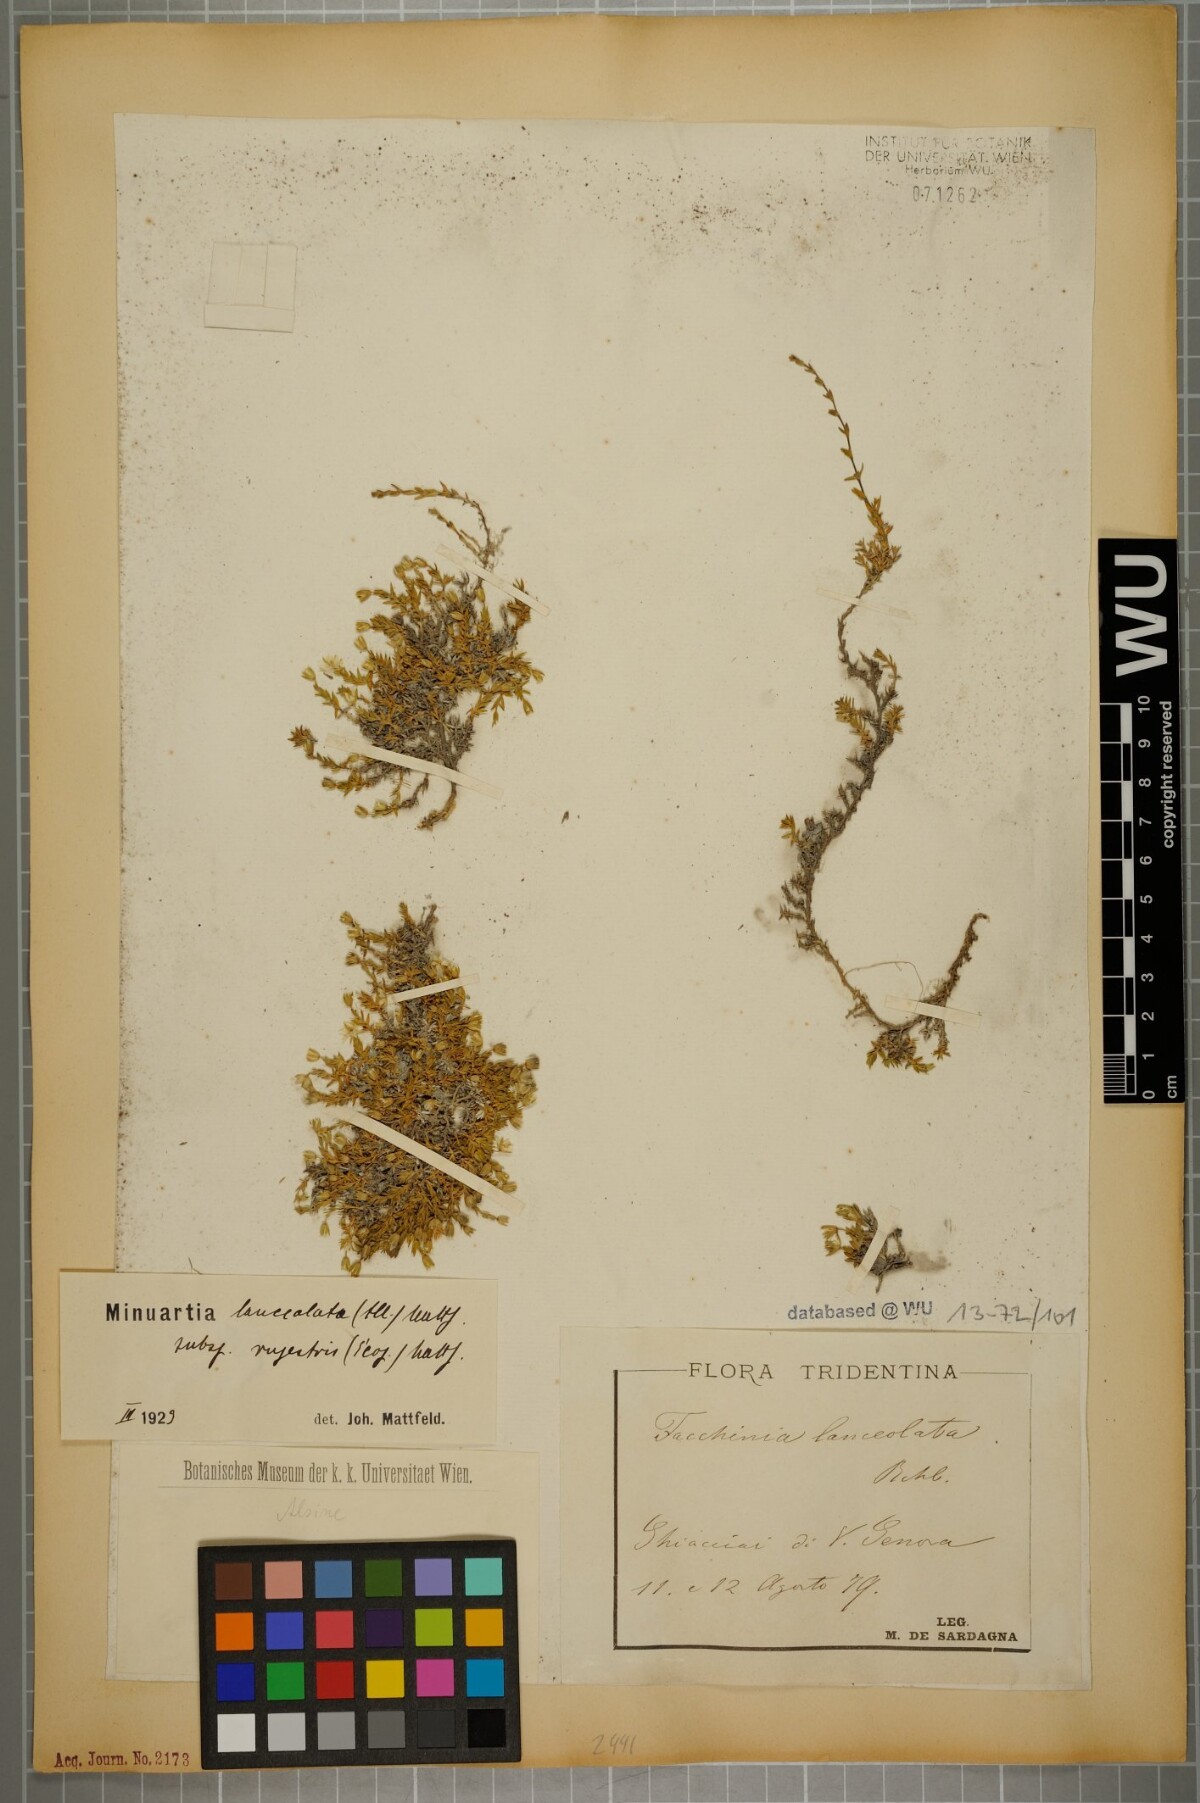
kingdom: Plantae
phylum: Tracheophyta
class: Magnoliopsida
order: Caryophyllales
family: Caryophyllaceae
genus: Facchinia
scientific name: Facchinia rupestris
